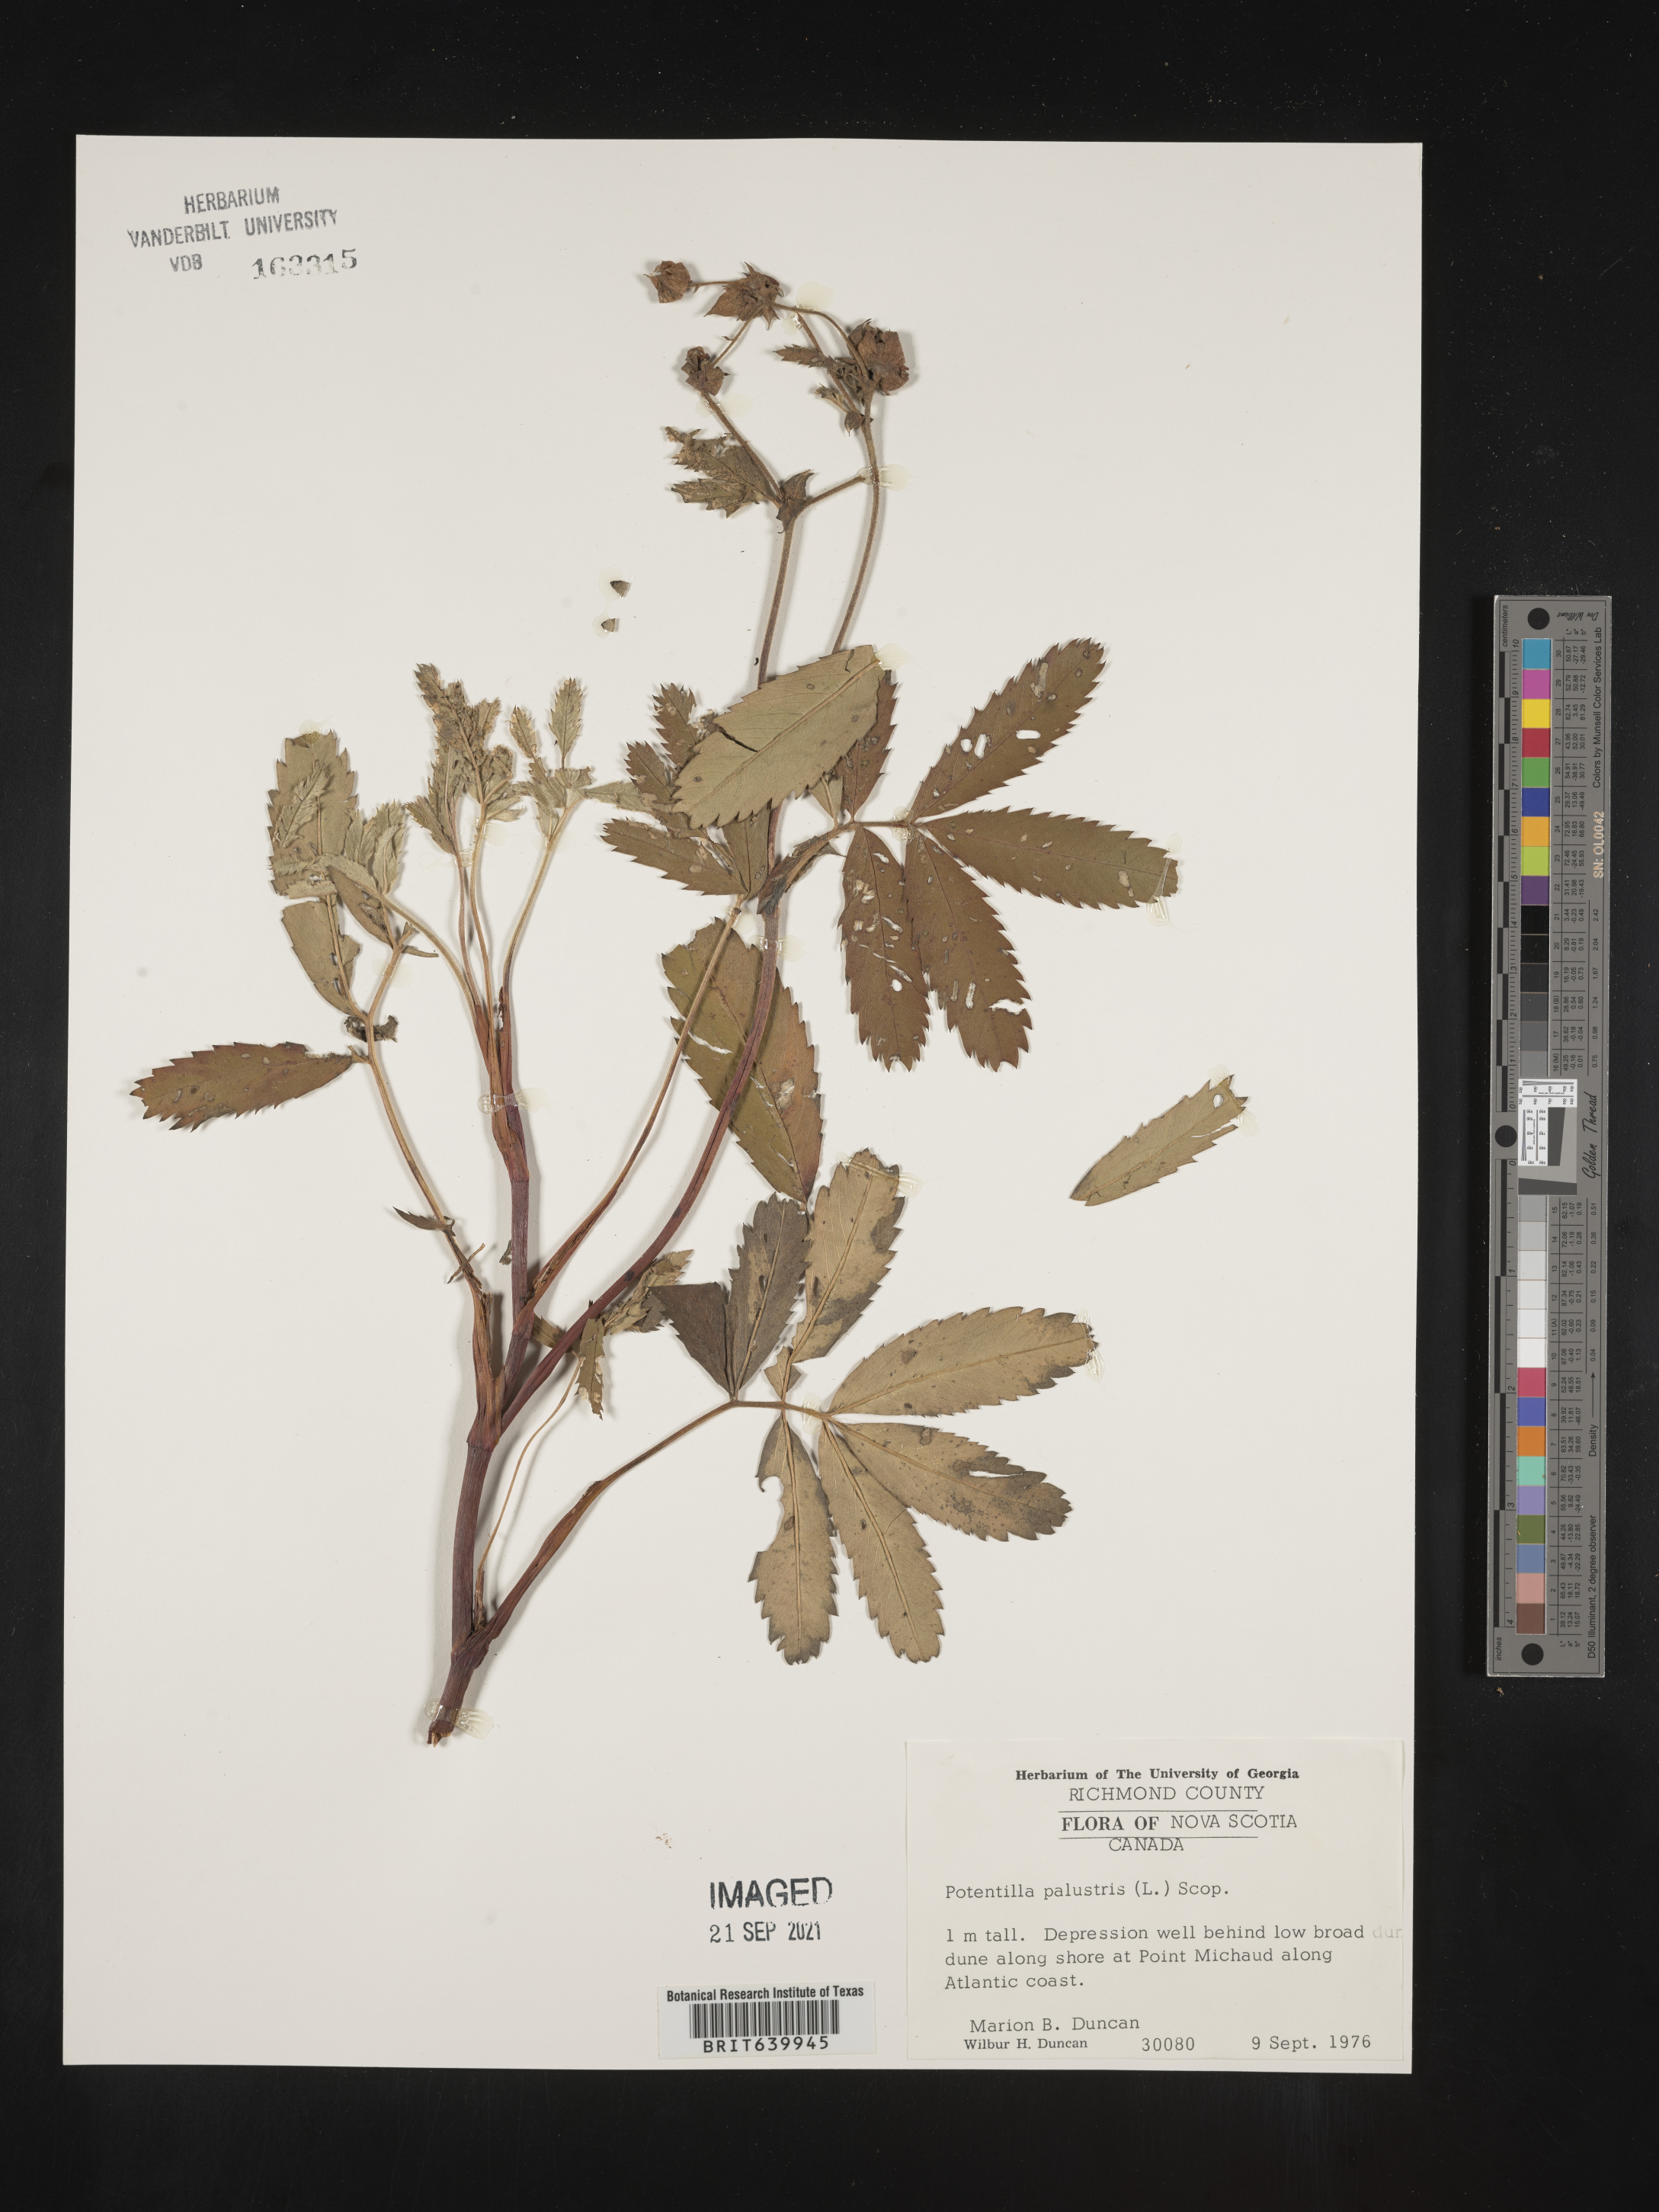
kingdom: Plantae
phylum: Tracheophyta
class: Magnoliopsida
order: Rosales
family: Rosaceae
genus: Potentilla
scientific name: Potentilla
